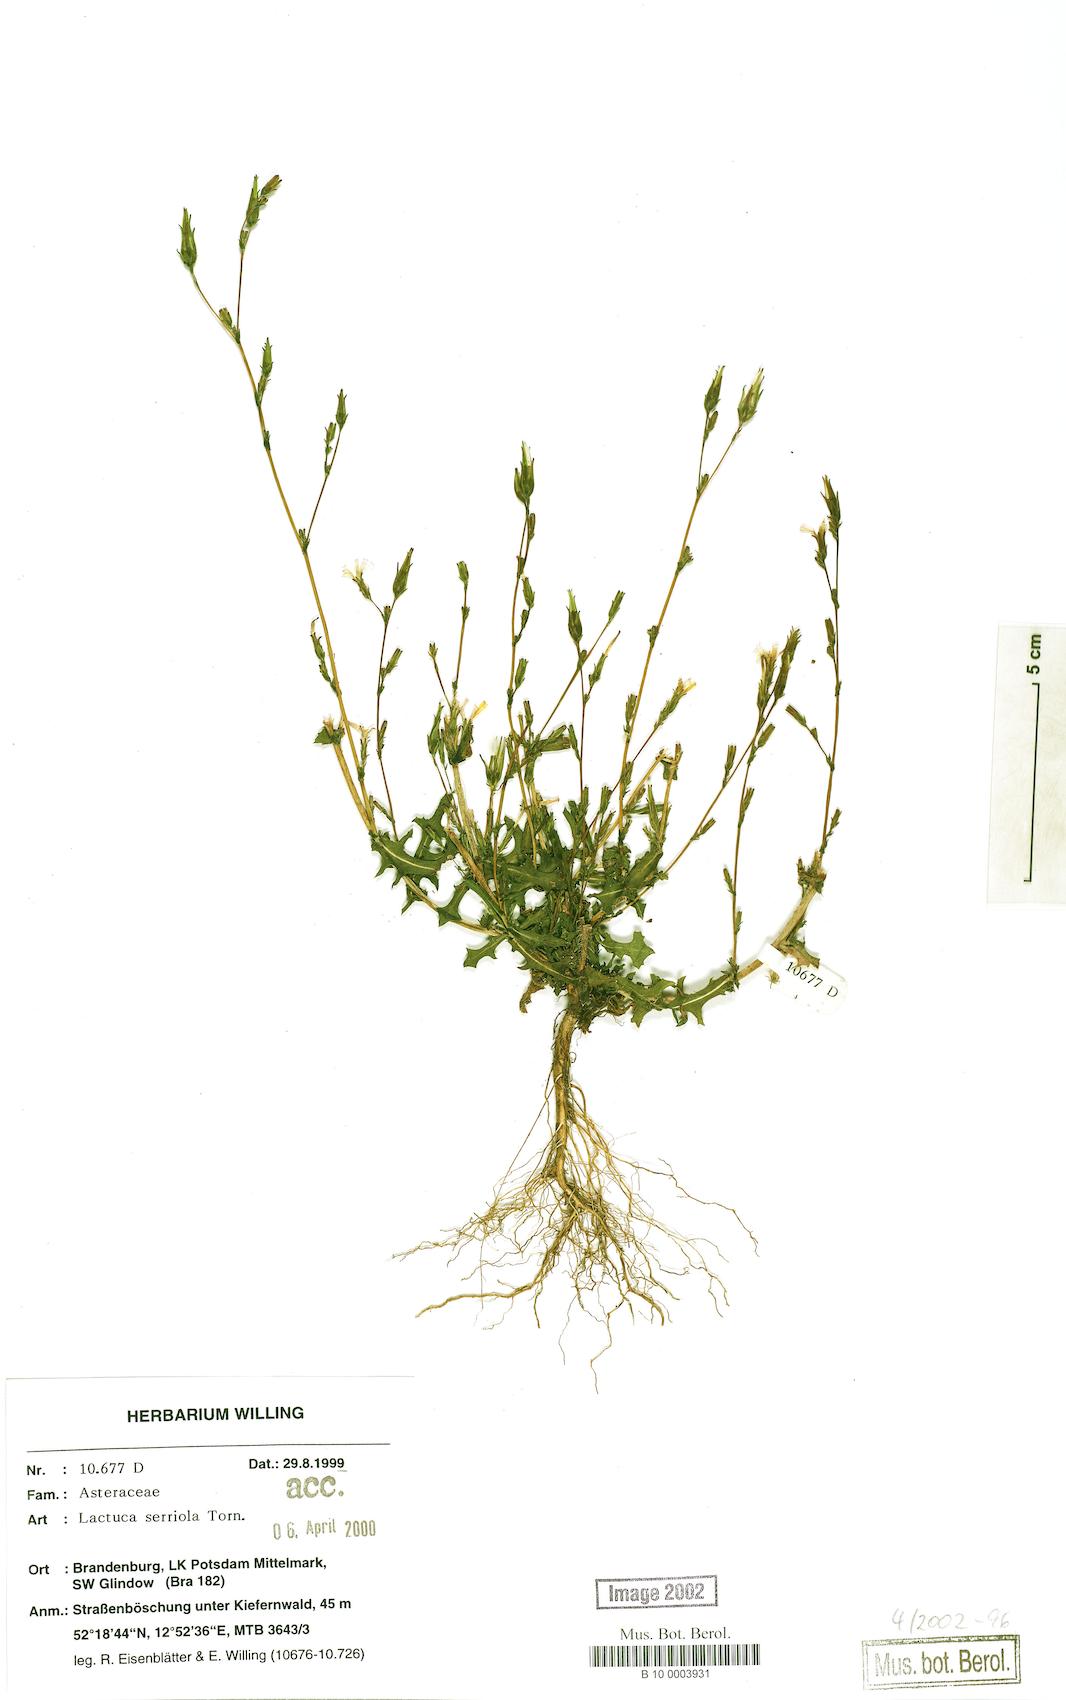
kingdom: Plantae
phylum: Tracheophyta
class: Magnoliopsida
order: Asterales
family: Asteraceae
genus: Lactuca
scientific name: Lactuca serriola
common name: Prickly lettuce
